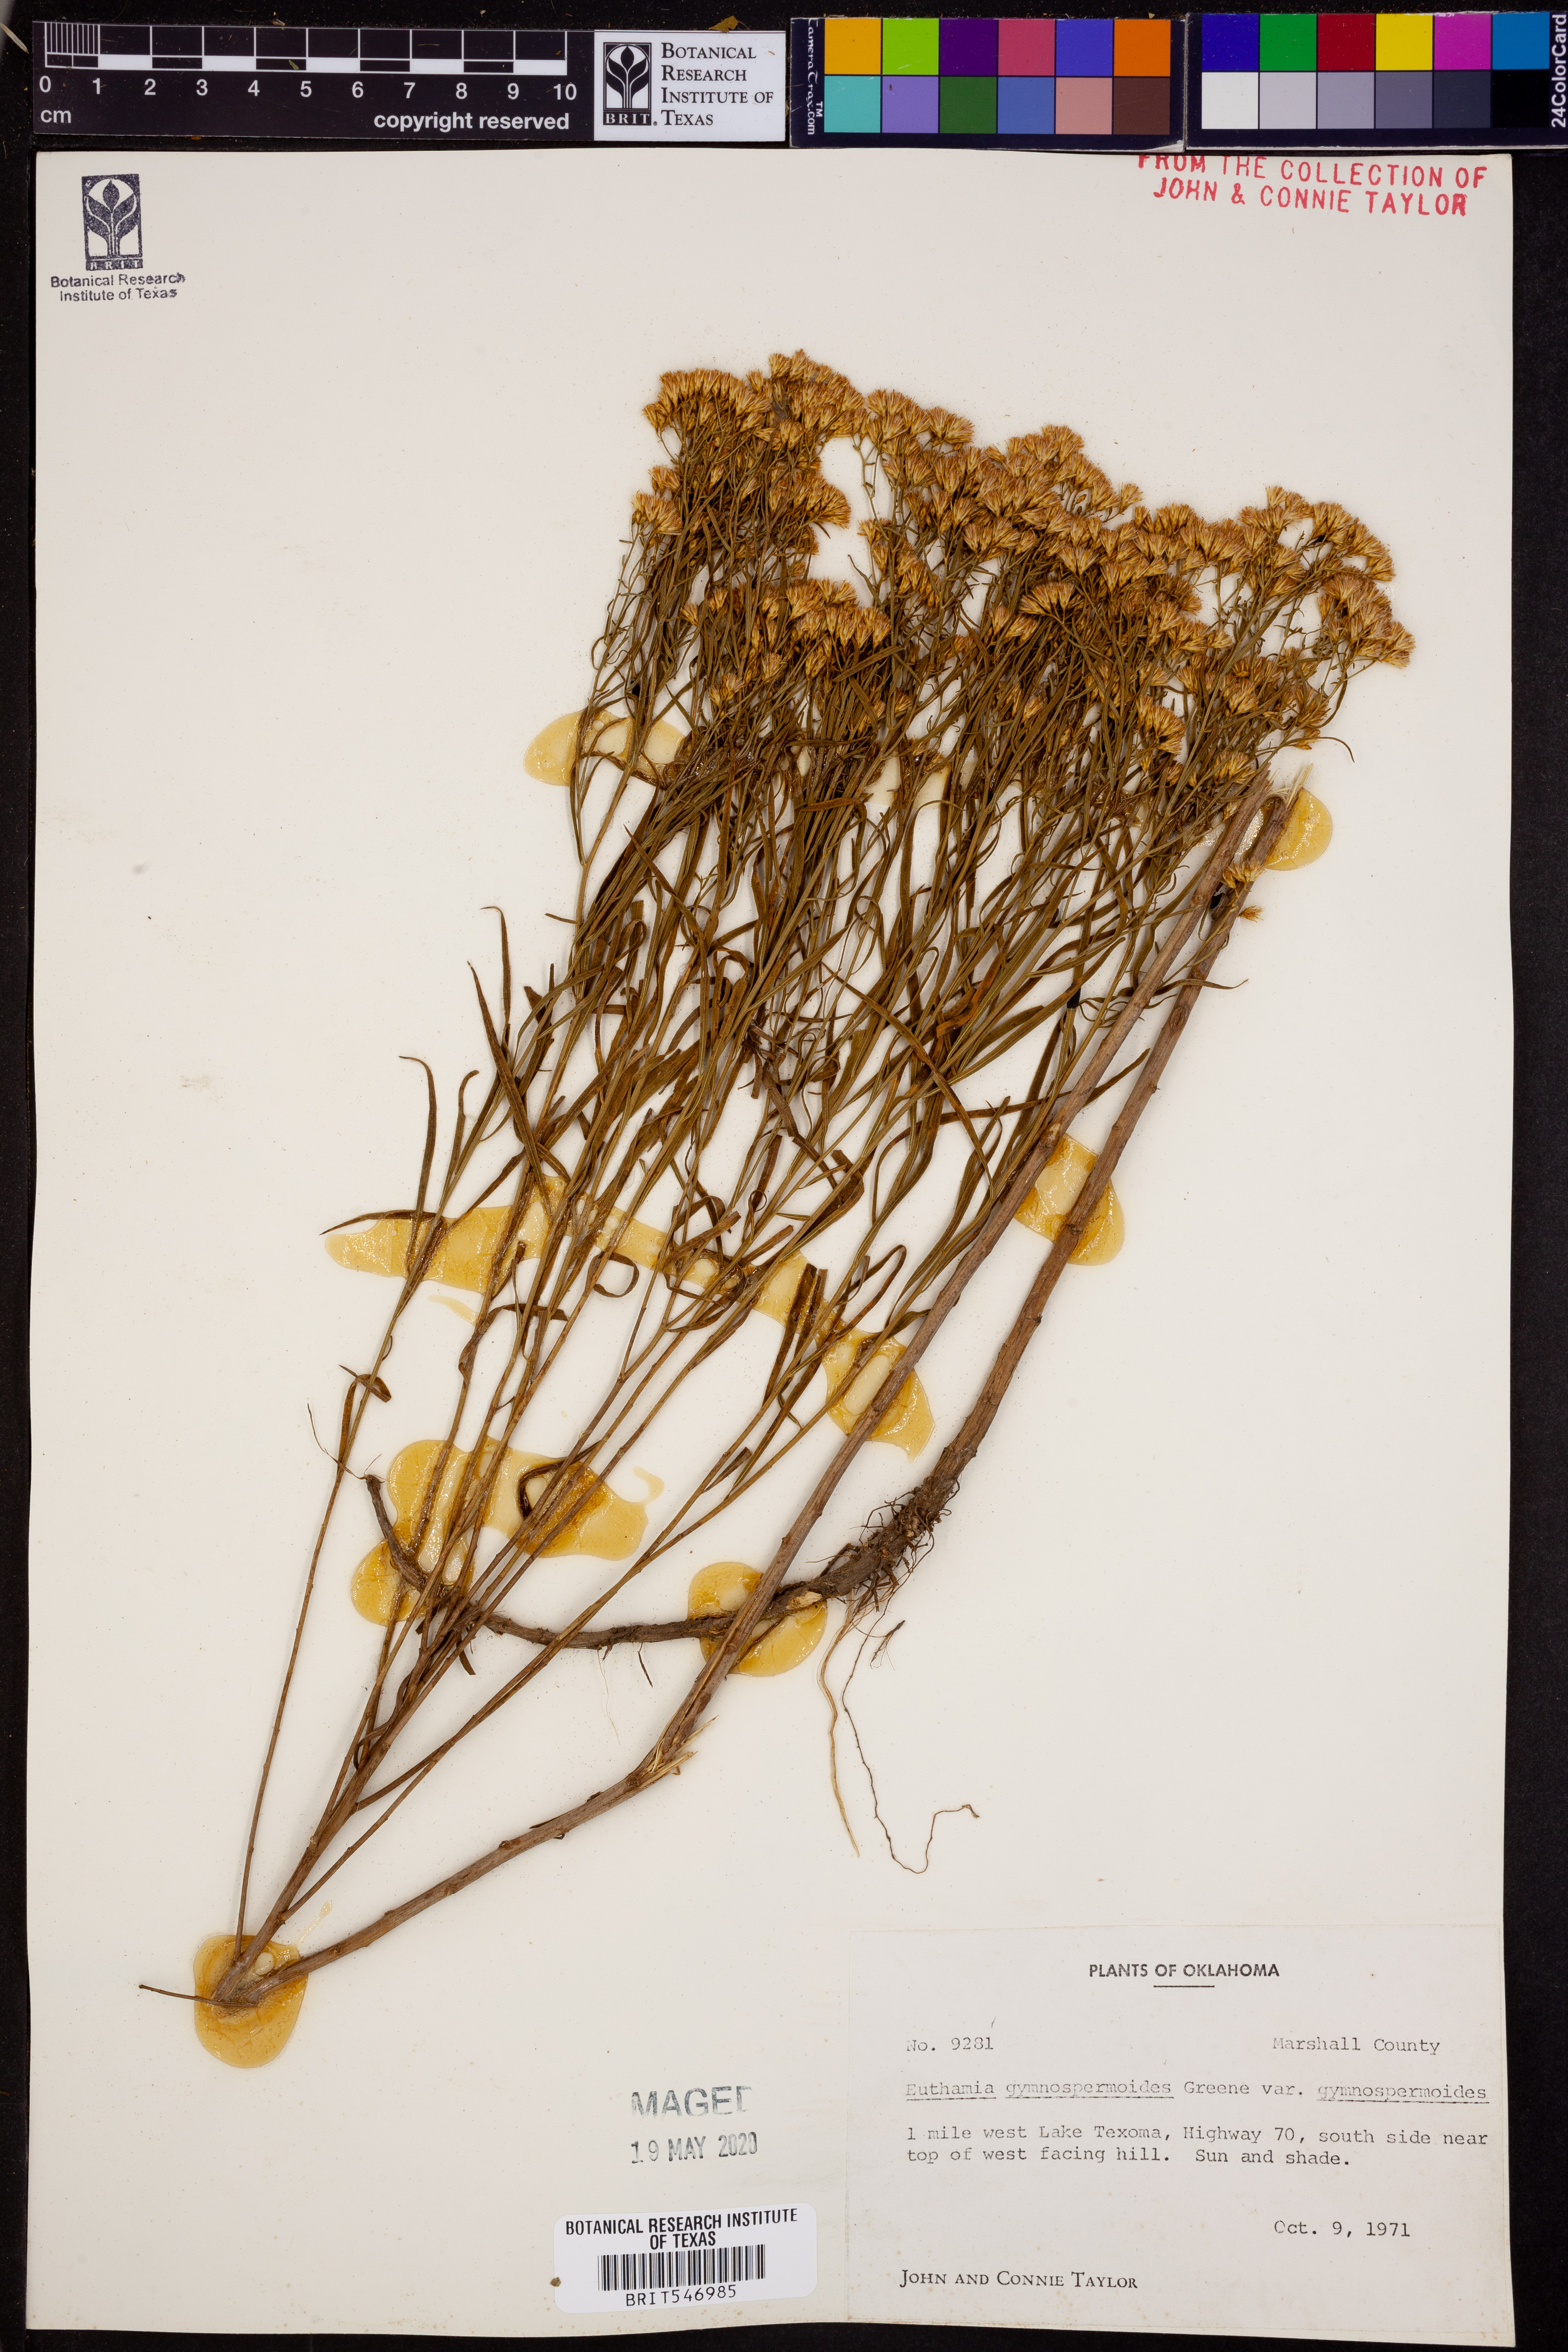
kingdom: Plantae
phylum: Tracheophyta
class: Magnoliopsida
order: Asterales
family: Asteraceae
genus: Euthamia
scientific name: Euthamia gymnospermoides
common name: Great plains goldentop
